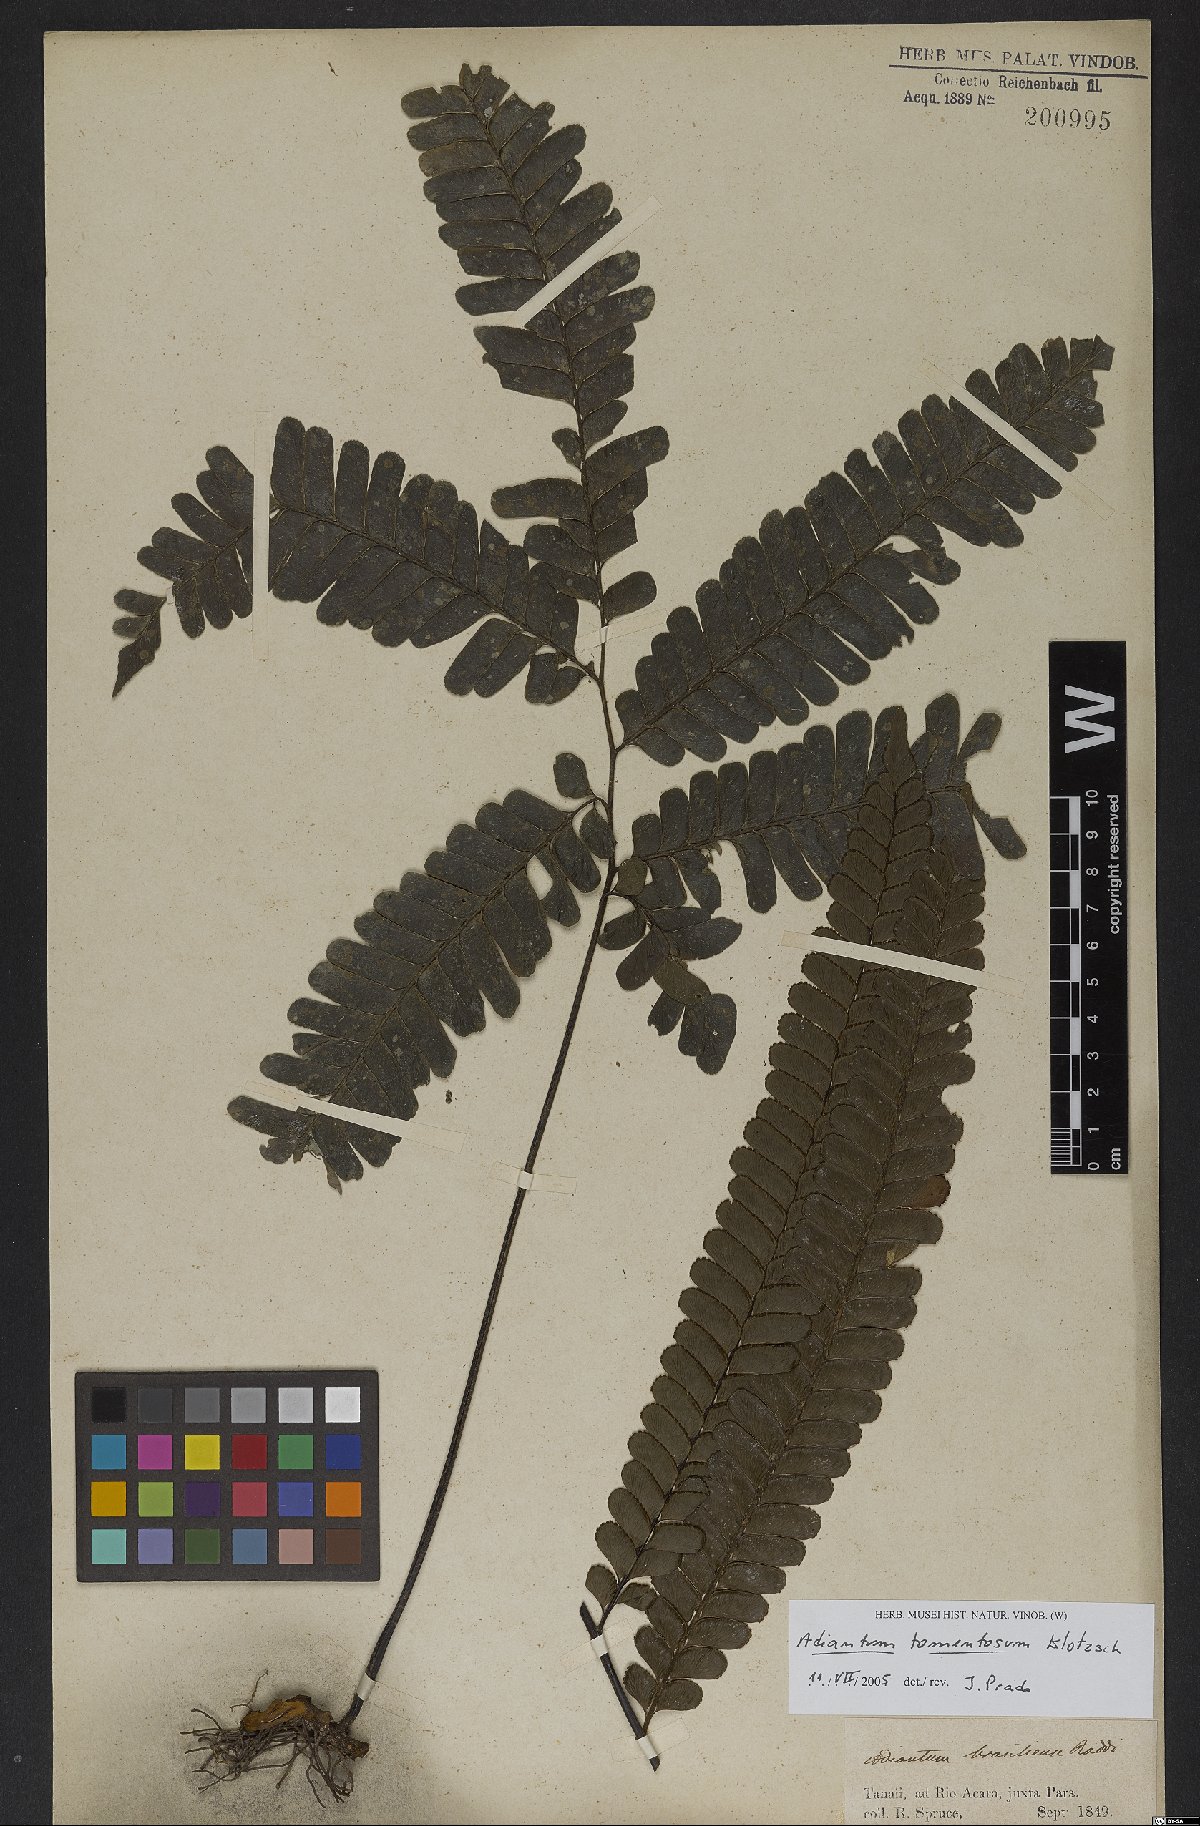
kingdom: Plantae
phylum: Tracheophyta
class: Polypodiopsida
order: Polypodiales
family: Pteridaceae
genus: Adiantum
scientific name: Adiantum tomentosum
